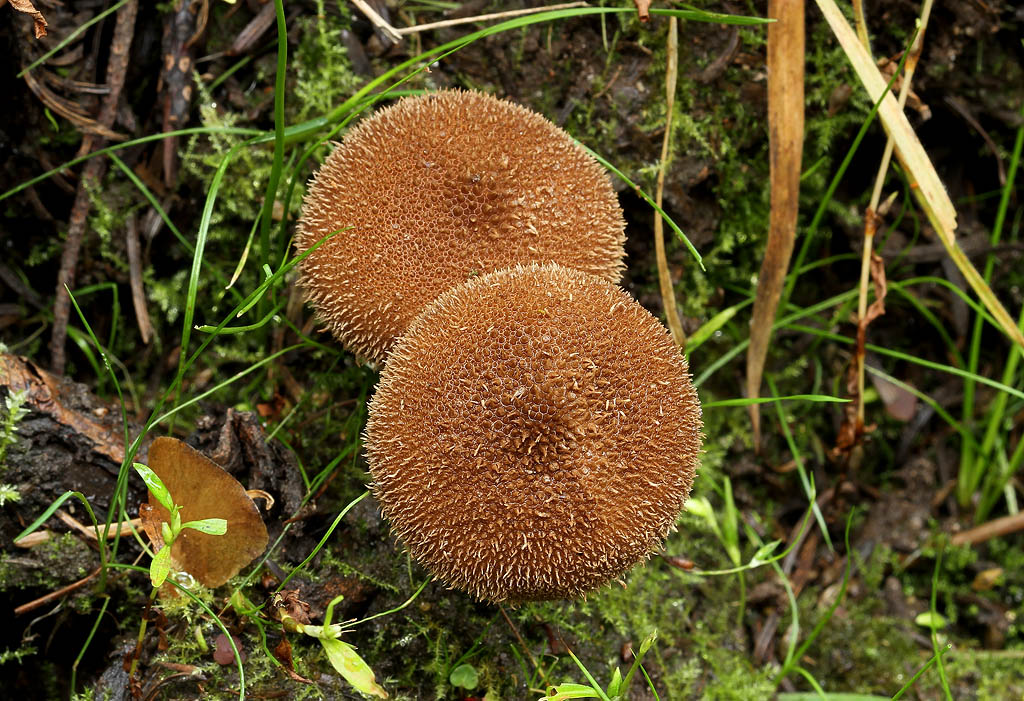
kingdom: Fungi
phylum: Basidiomycota
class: Agaricomycetes
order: Agaricales
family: Lycoperdaceae
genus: Lycoperdon
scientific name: Lycoperdon nigrescens
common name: sortagtig støvbold
